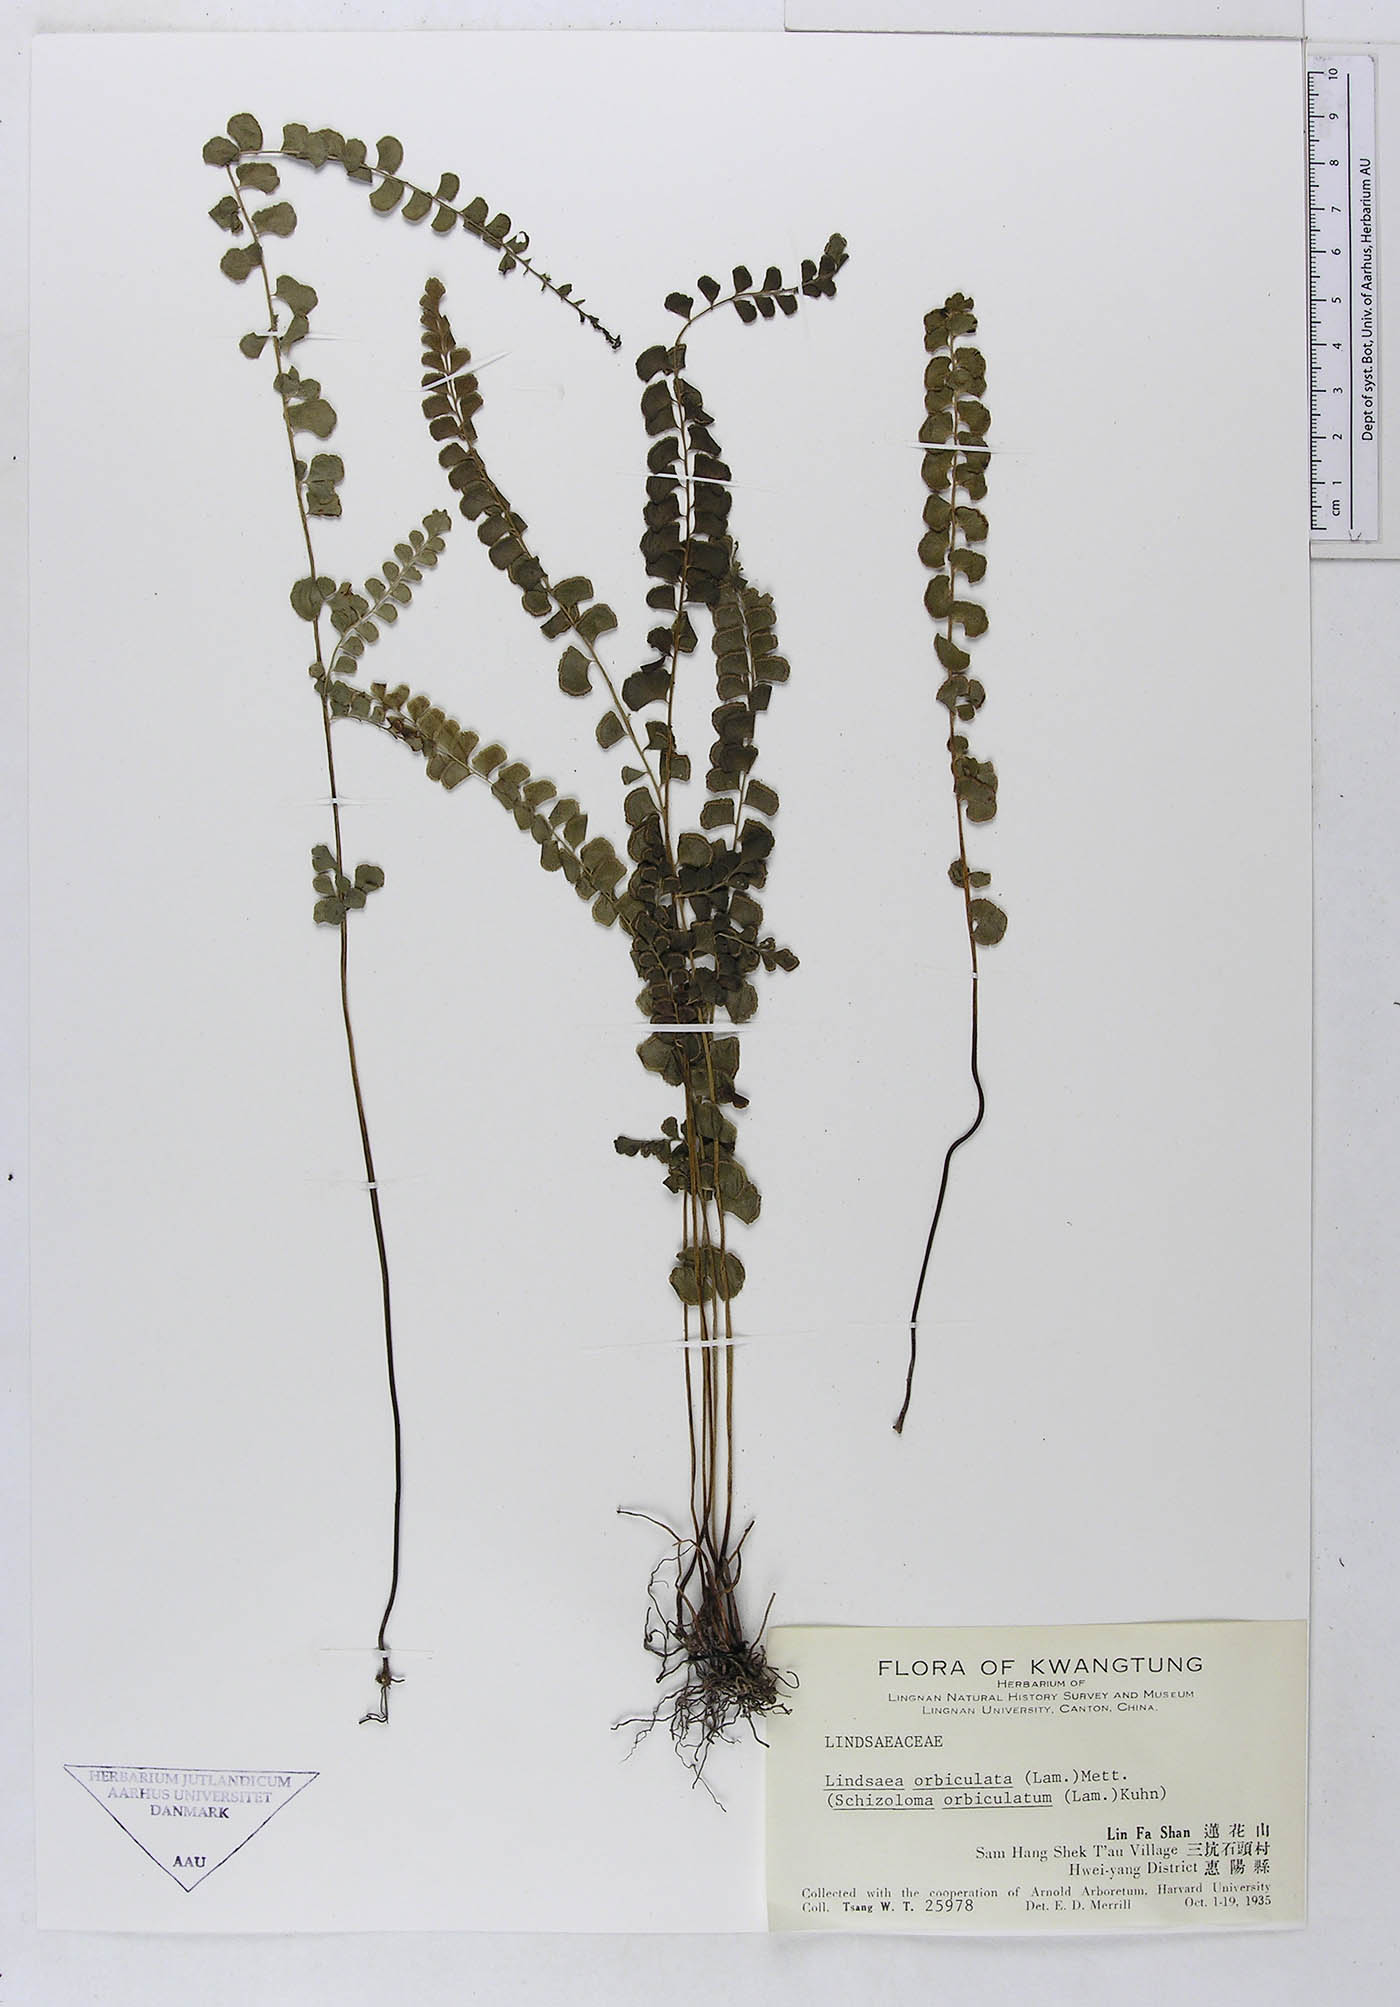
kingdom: Plantae
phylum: Tracheophyta
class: Polypodiopsida
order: Polypodiales
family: Dennstaedtiaceae
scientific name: Dennstaedtiaceae
